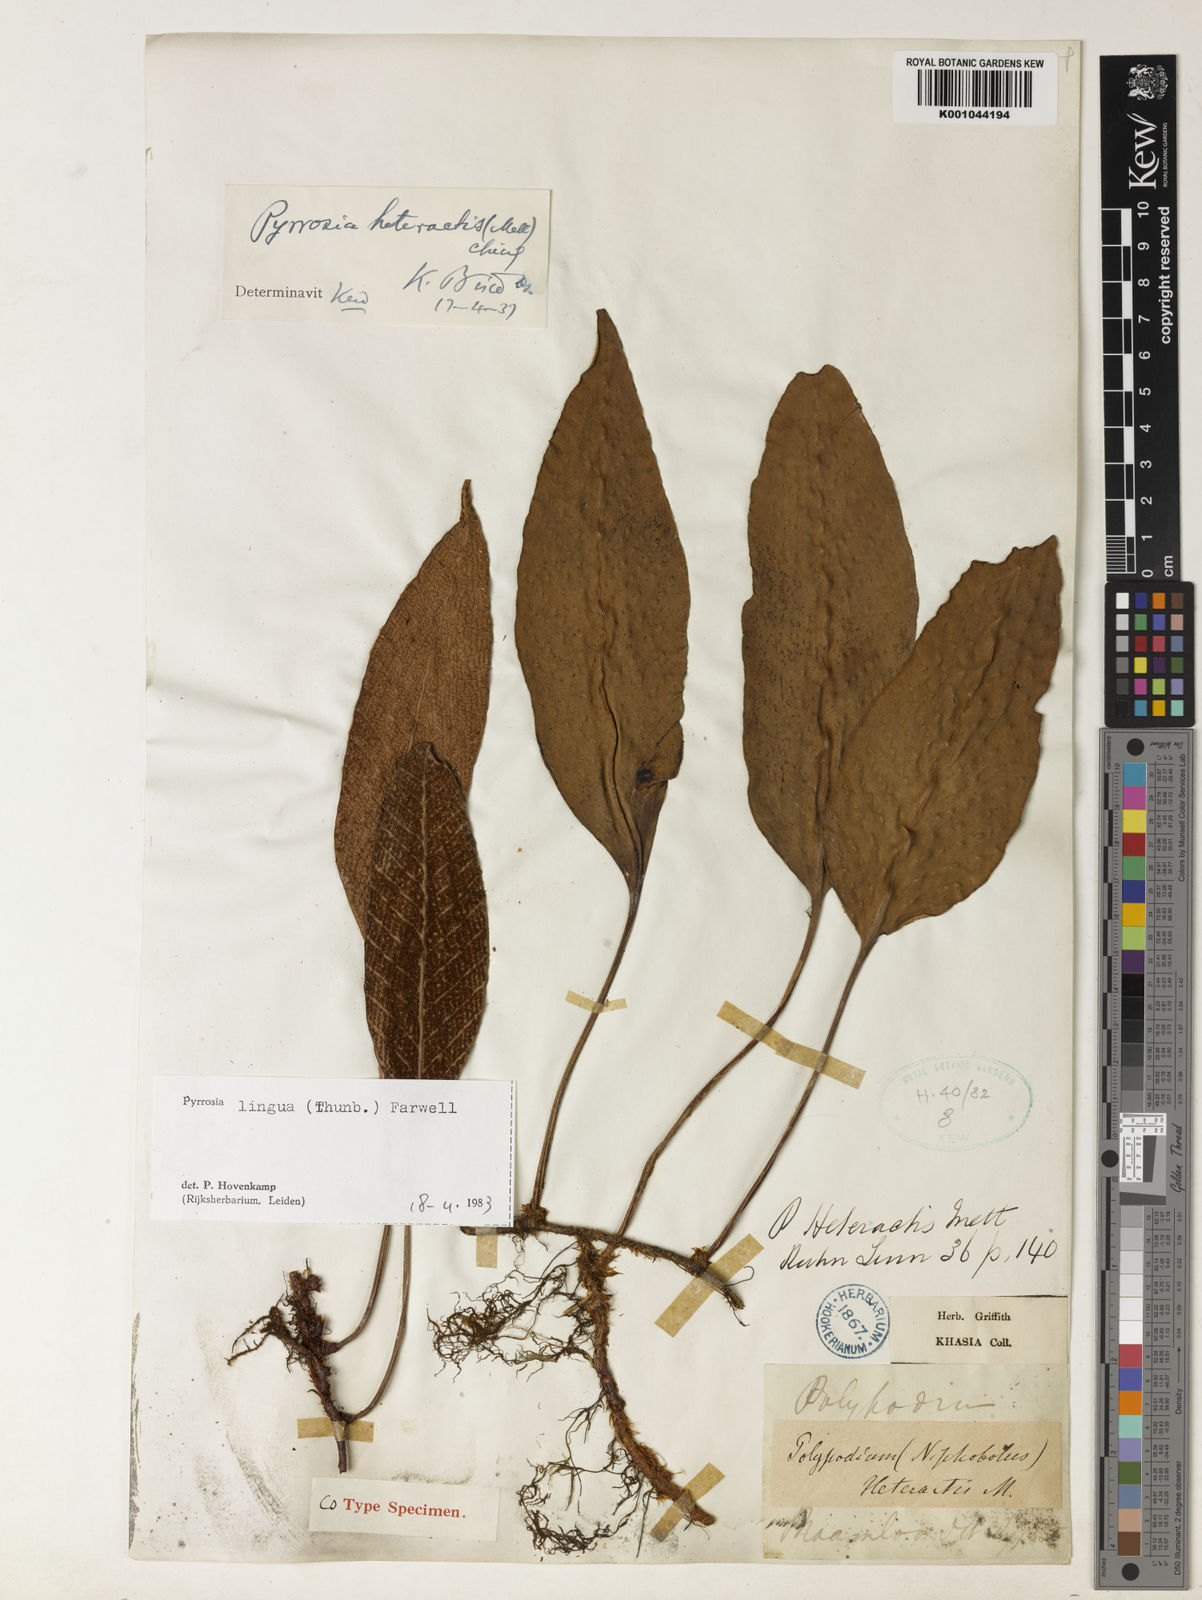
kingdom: Plantae
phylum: Tracheophyta
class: Polypodiopsida
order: Polypodiales
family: Polypodiaceae
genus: Pyrrosia
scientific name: Pyrrosia heteractis
